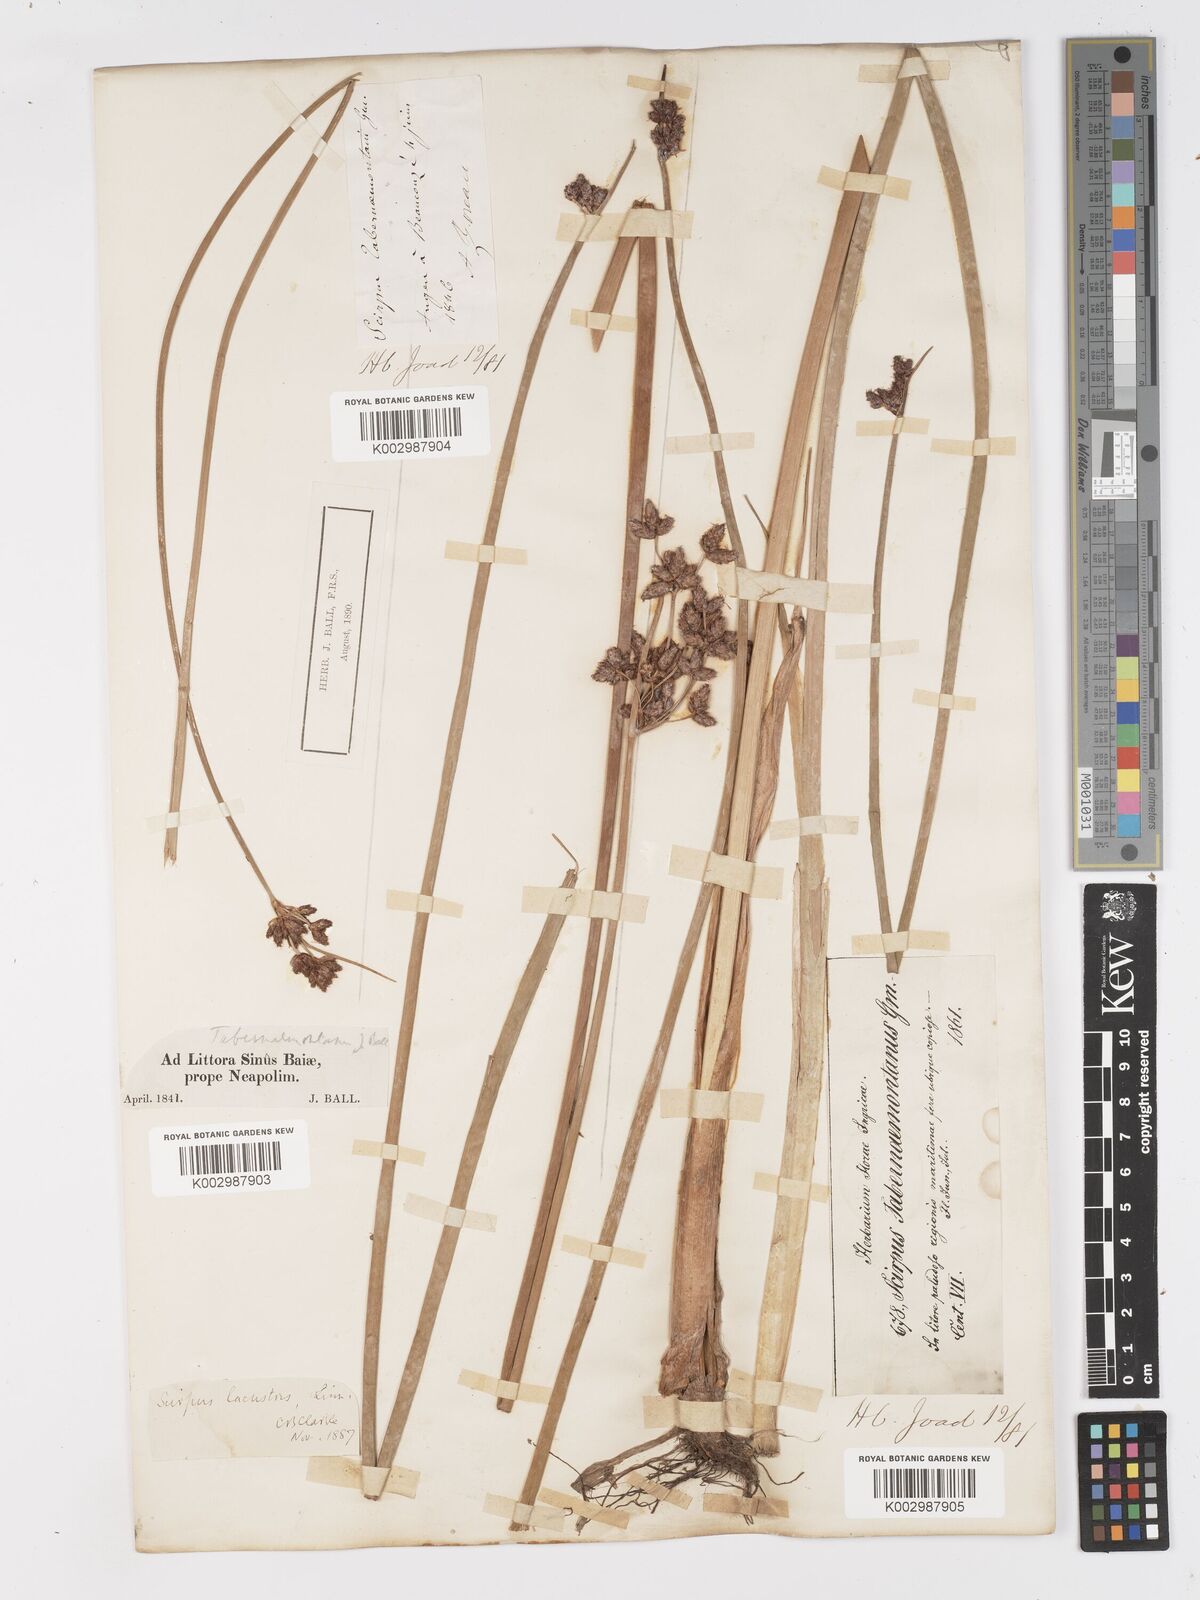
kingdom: Plantae
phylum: Tracheophyta
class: Liliopsida
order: Poales
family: Cyperaceae
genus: Schoenoplectus
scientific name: Schoenoplectus tabernaemontani
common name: Grey club-rush
